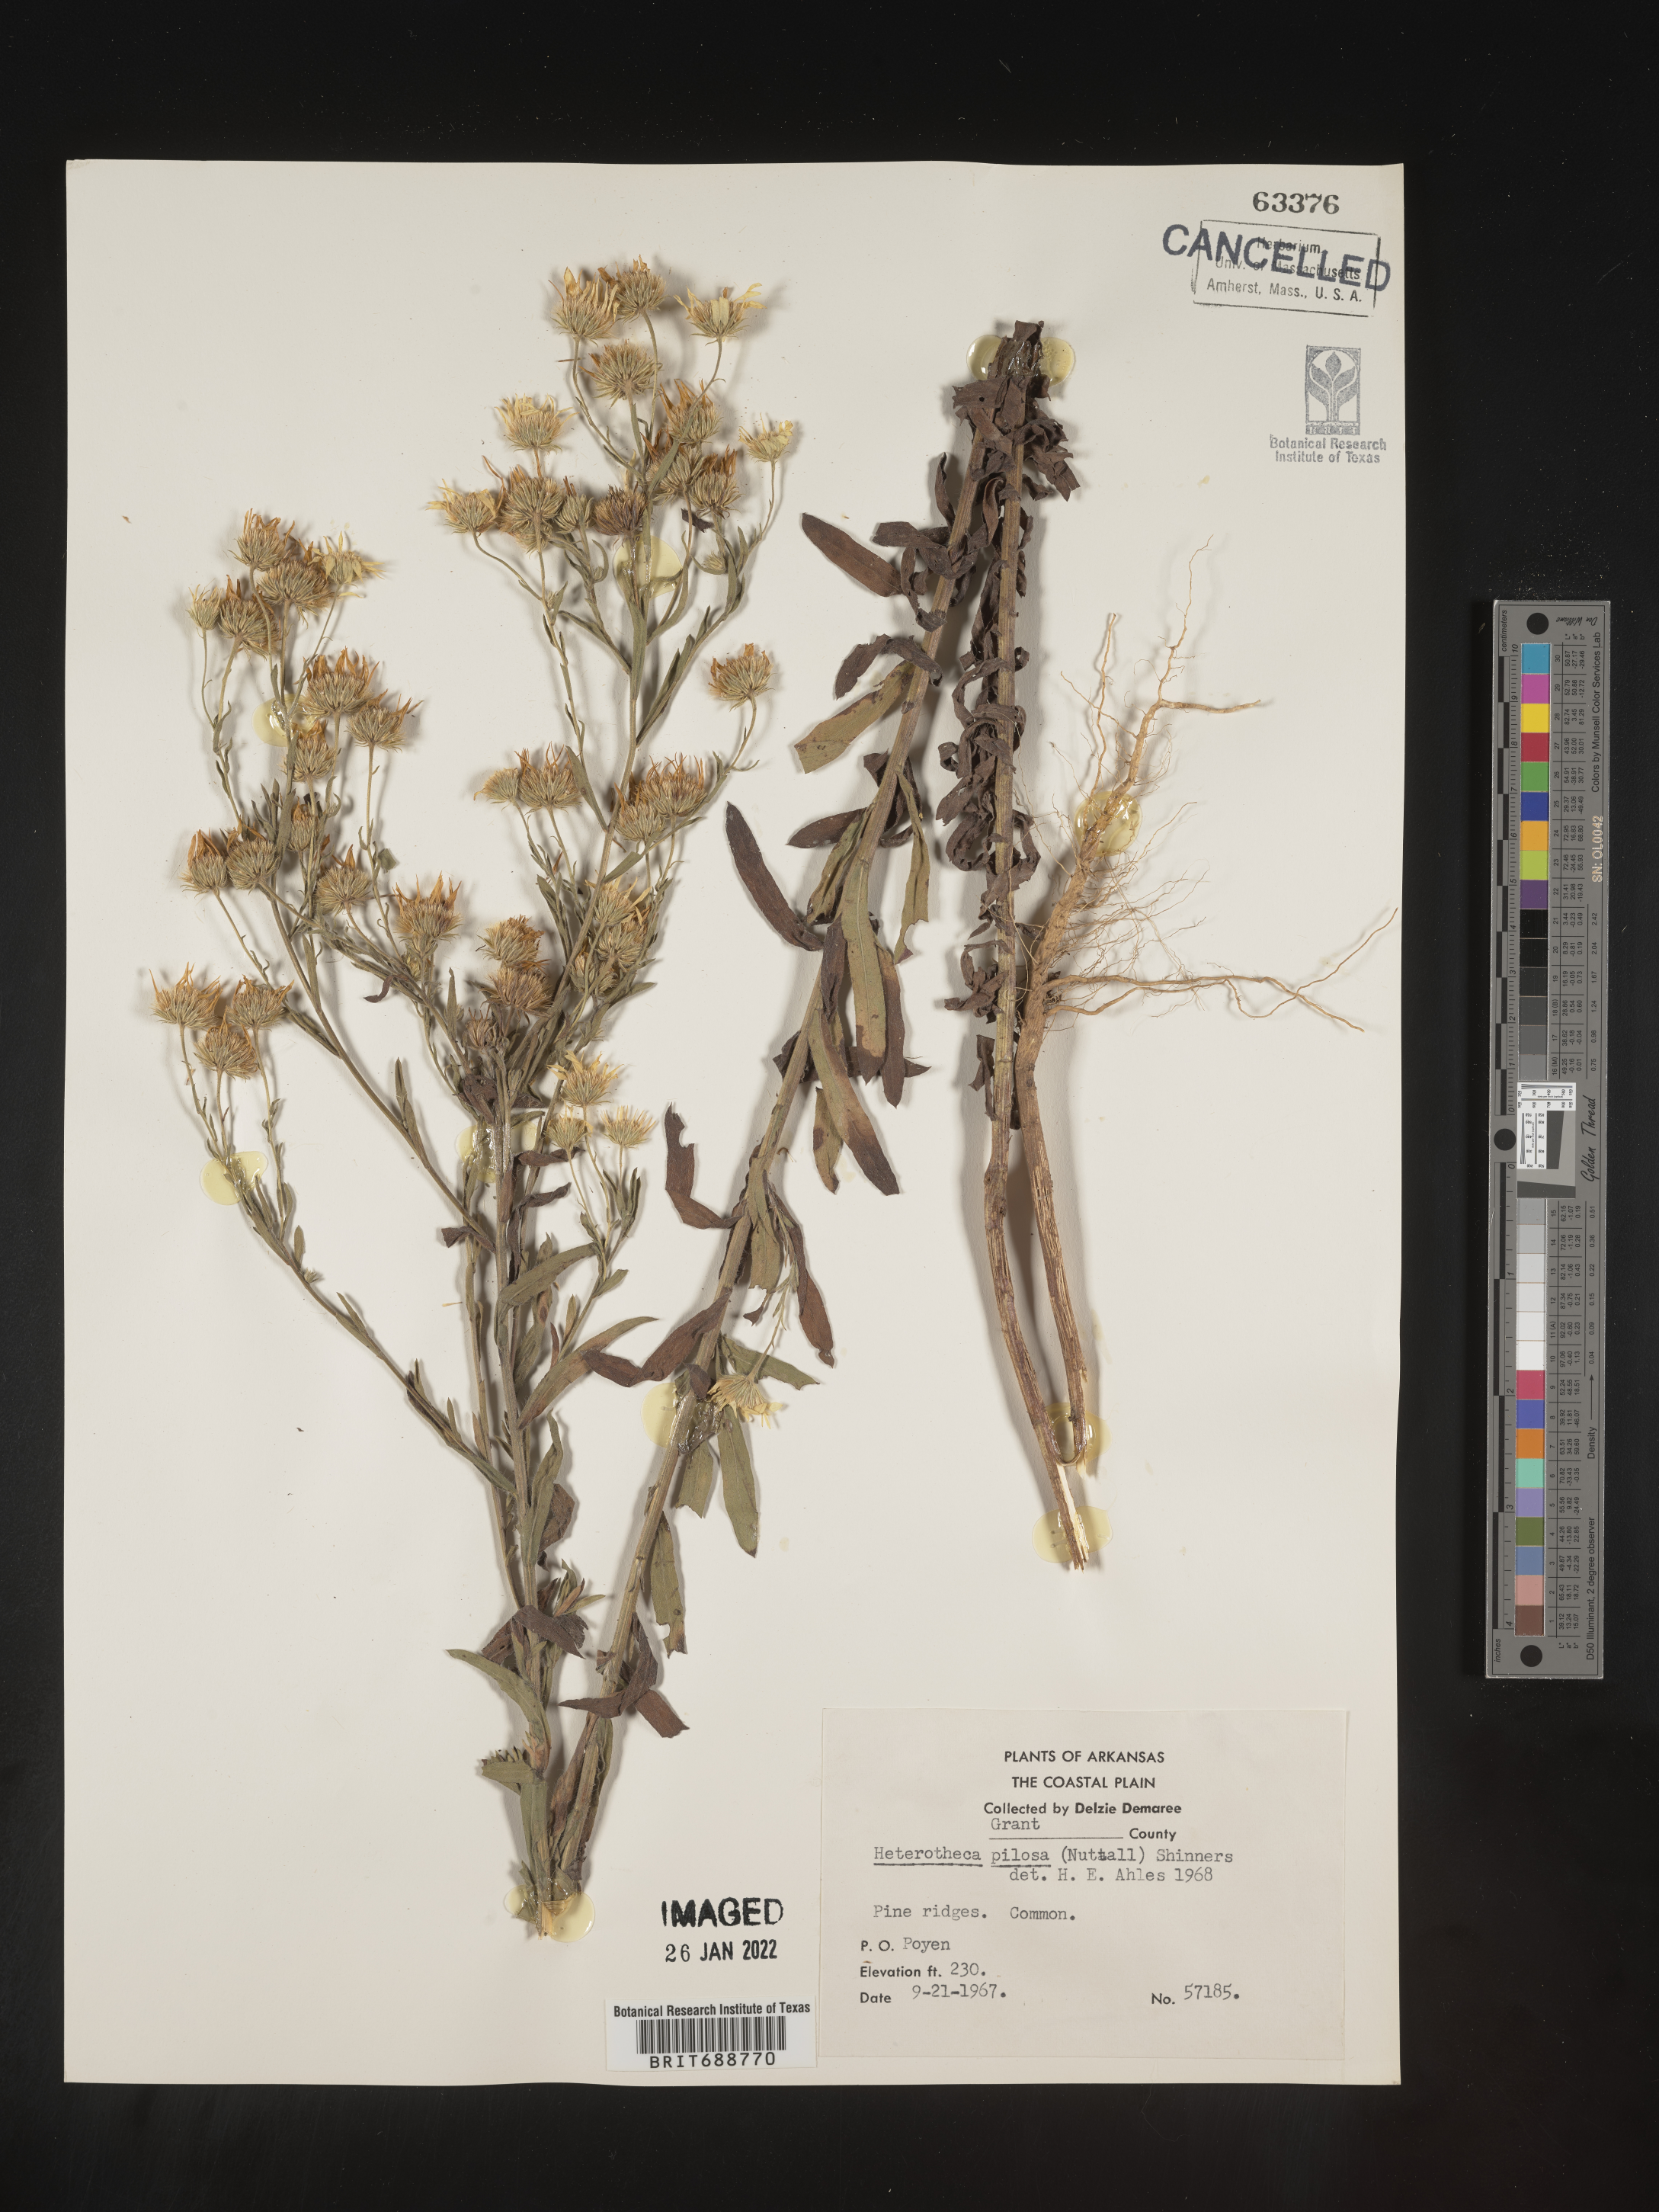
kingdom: Plantae
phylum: Tracheophyta
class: Magnoliopsida
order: Asterales
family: Asteraceae
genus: Bradburia
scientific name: Bradburia pilosa
